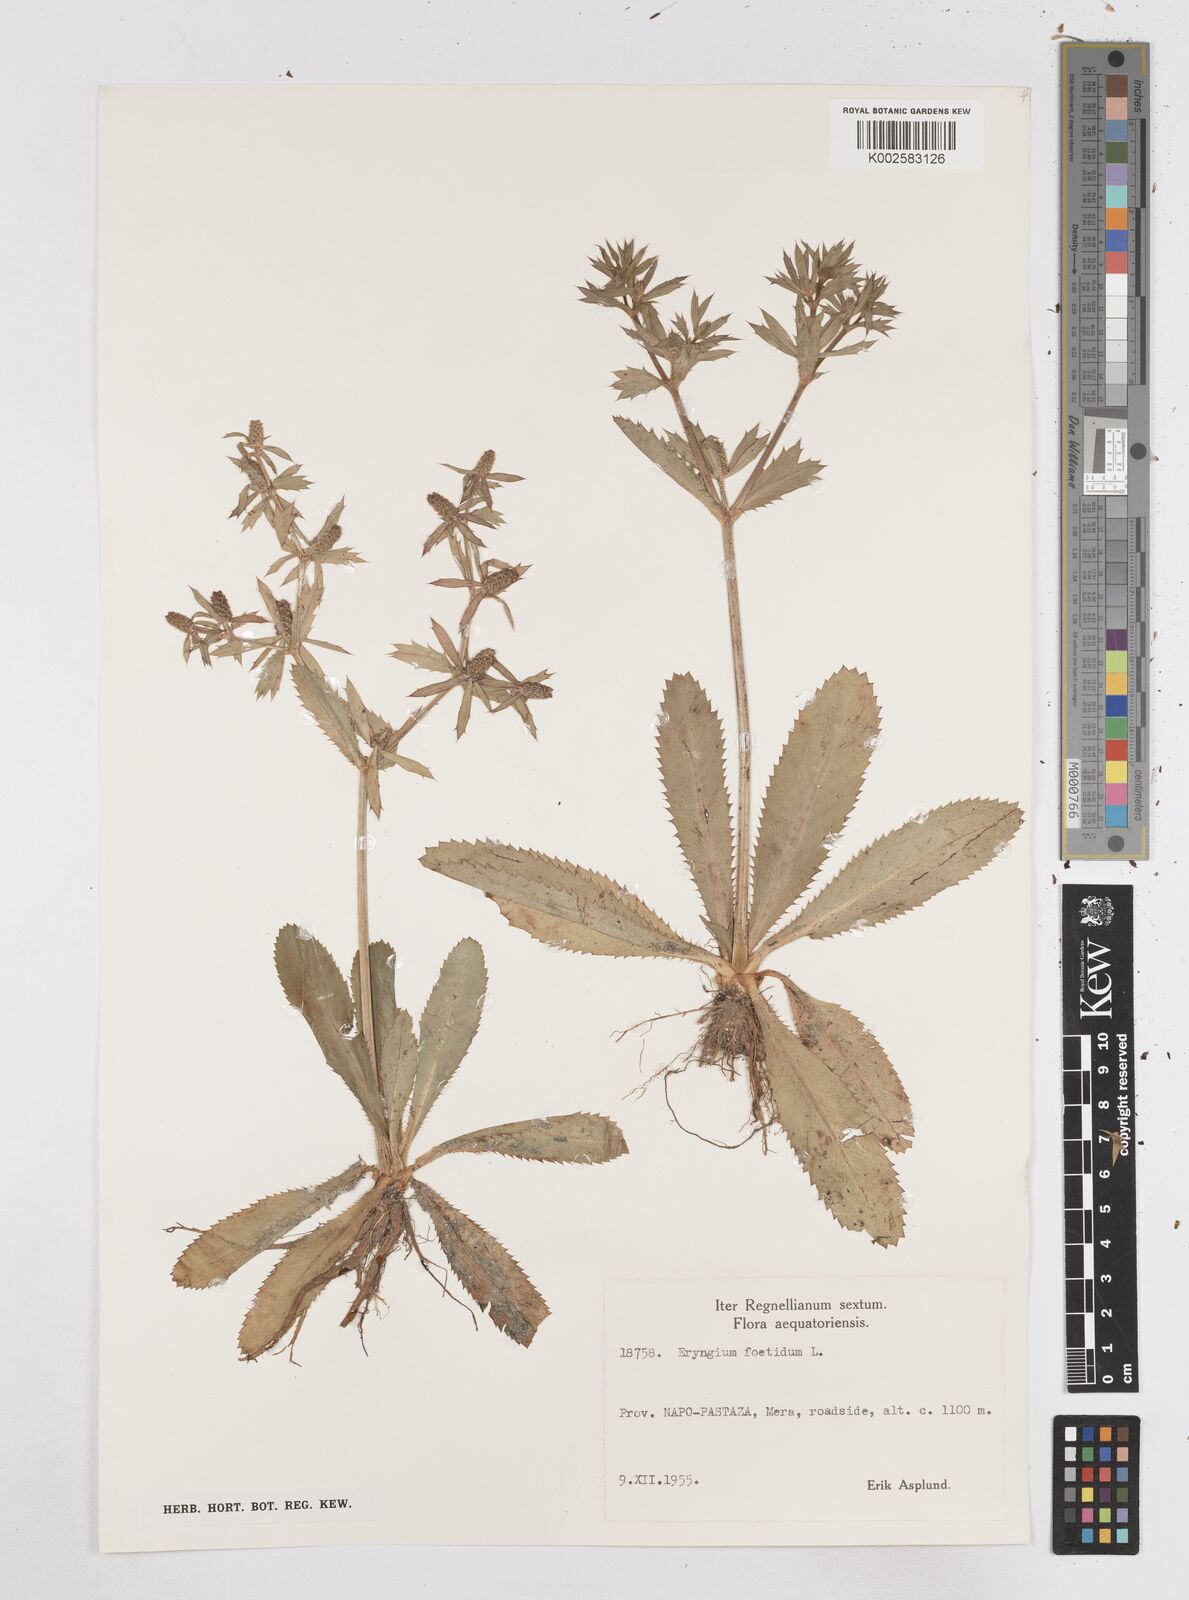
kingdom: Plantae
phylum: Tracheophyta
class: Magnoliopsida
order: Apiales
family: Apiaceae
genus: Eryngium
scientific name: Eryngium foetidum
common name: Fitweed
